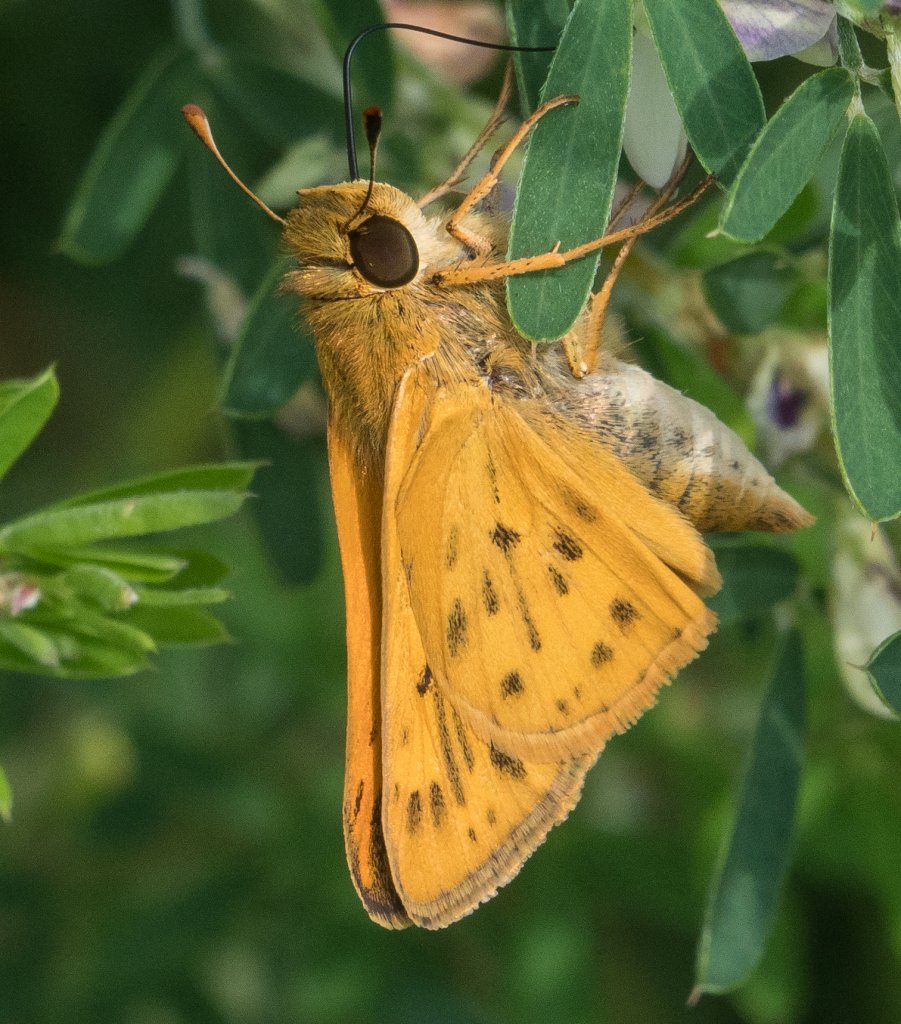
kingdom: Animalia
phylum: Arthropoda
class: Insecta
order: Lepidoptera
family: Hesperiidae
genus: Hylephila
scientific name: Hylephila phyleus
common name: Fiery Skipper
